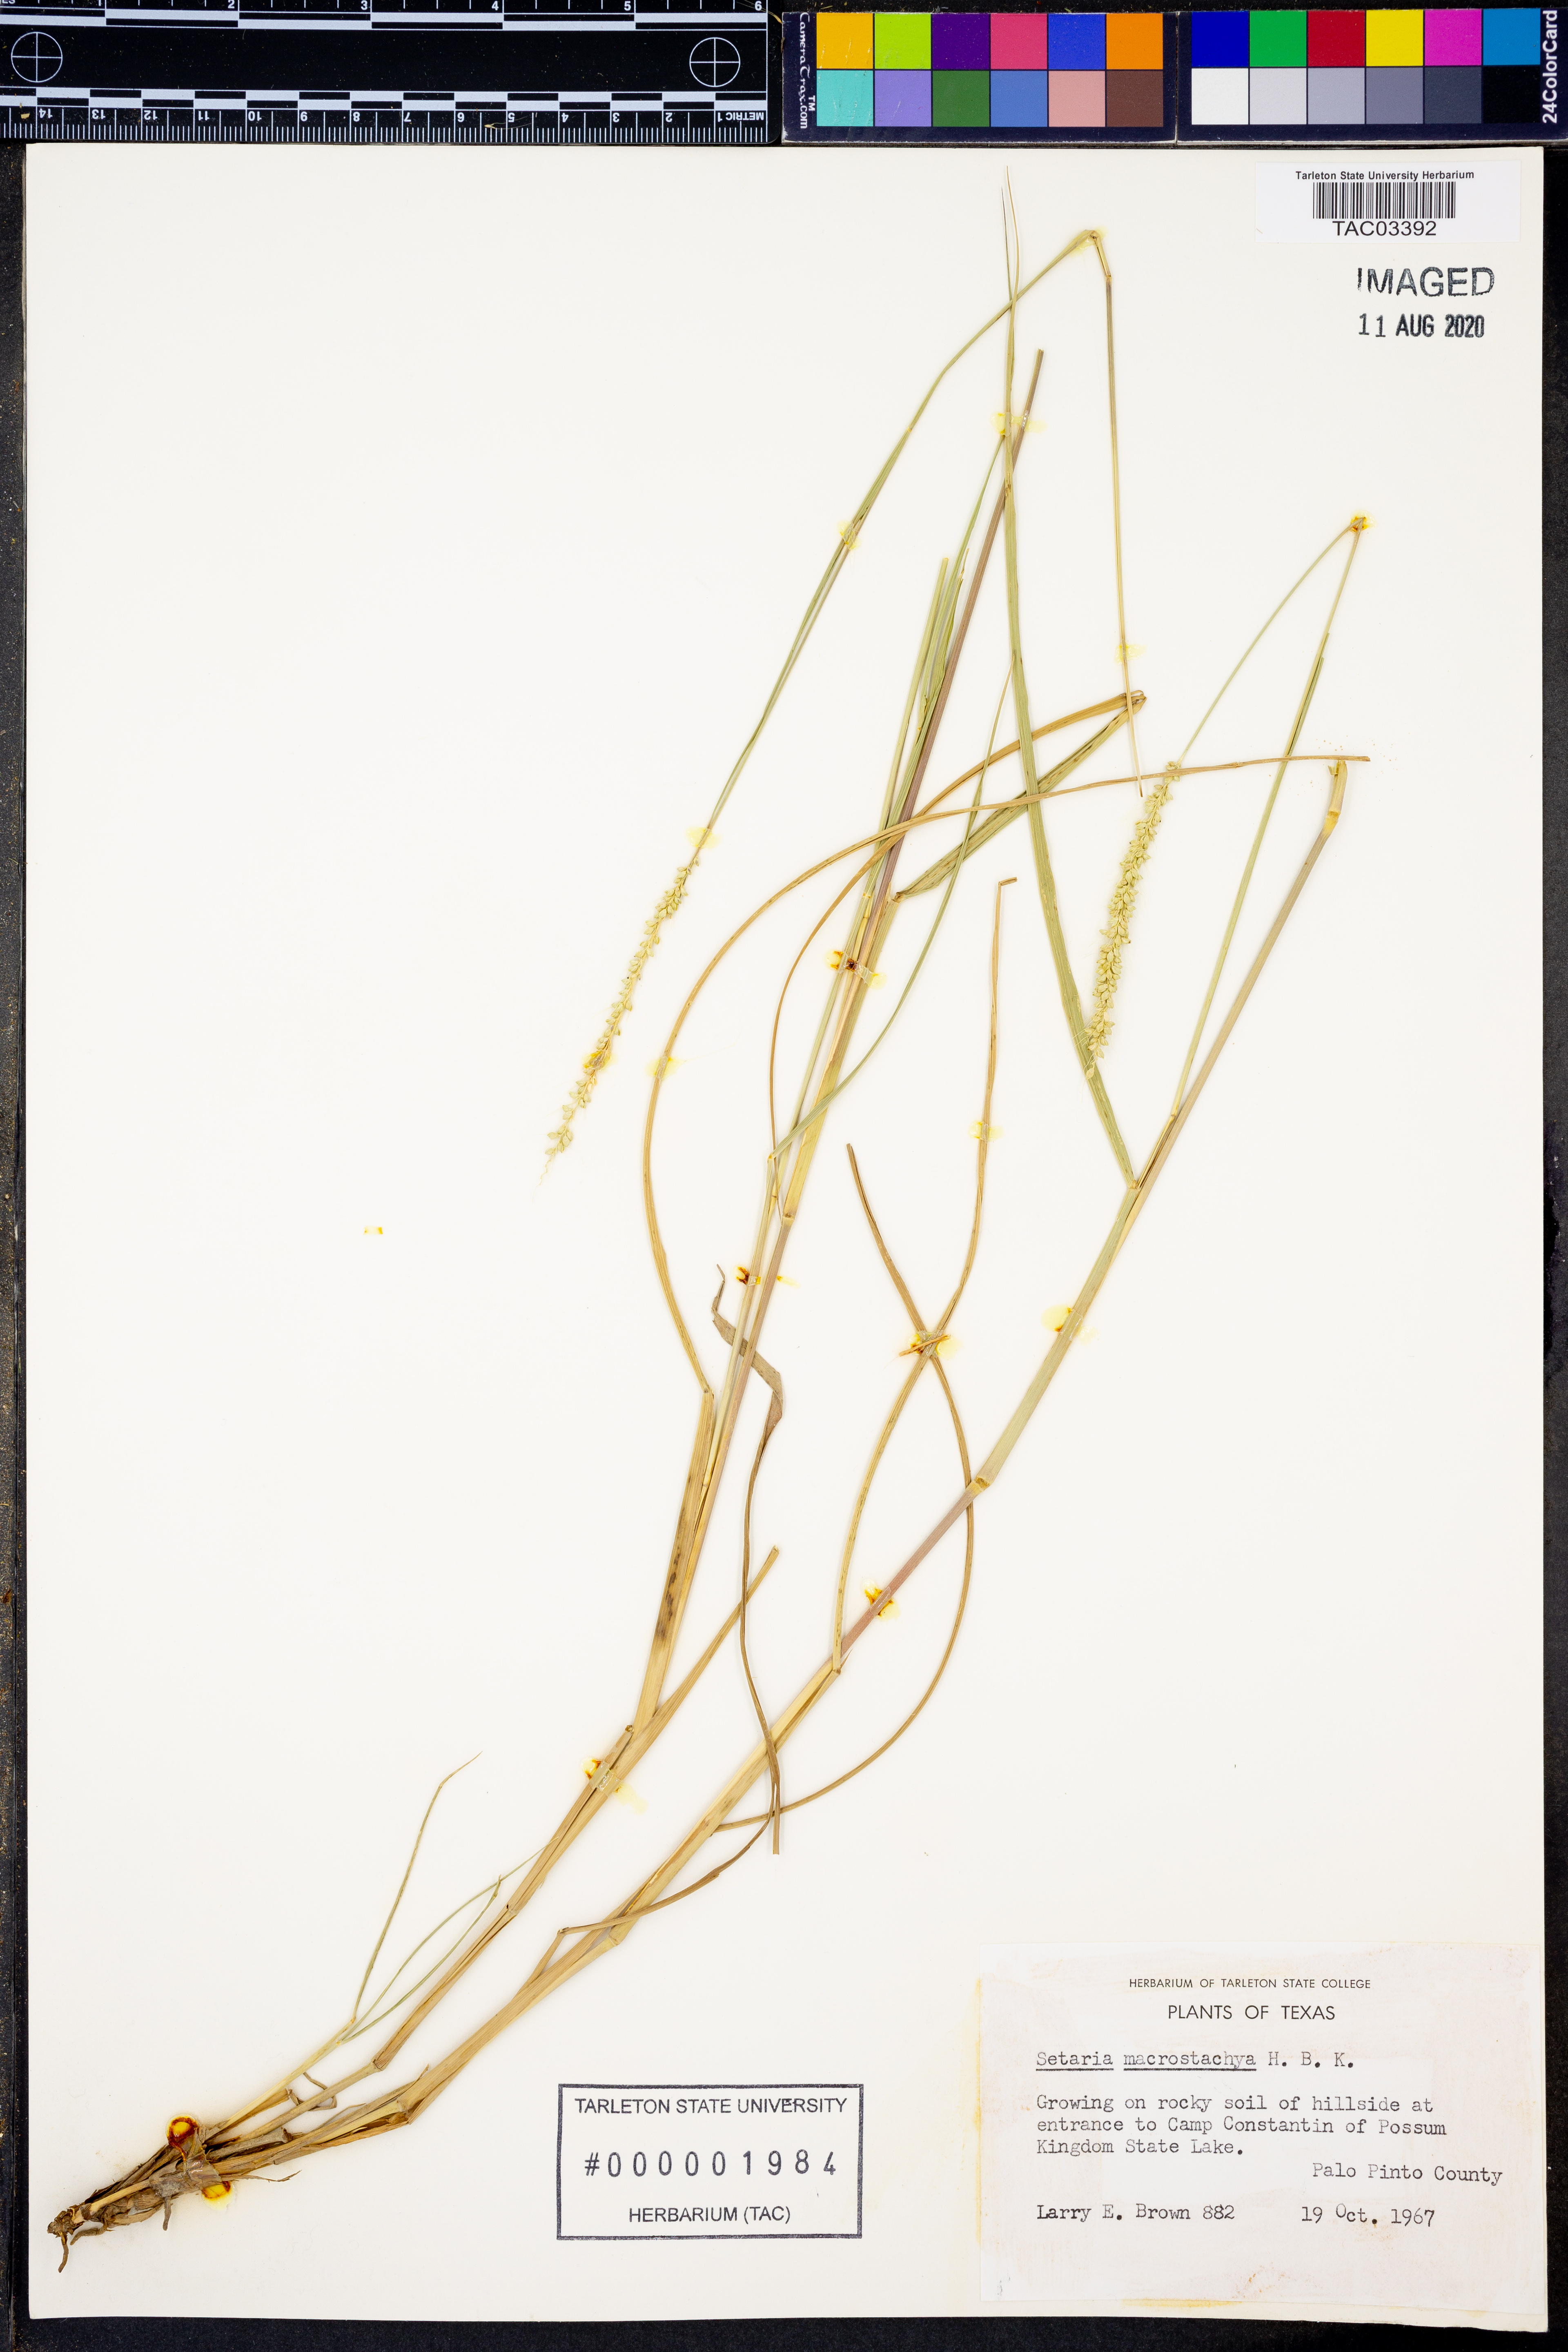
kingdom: Plantae
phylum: Tracheophyta
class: Liliopsida
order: Poales
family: Poaceae
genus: Setaria
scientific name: Setaria macrostachya
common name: Plains bristle grass
